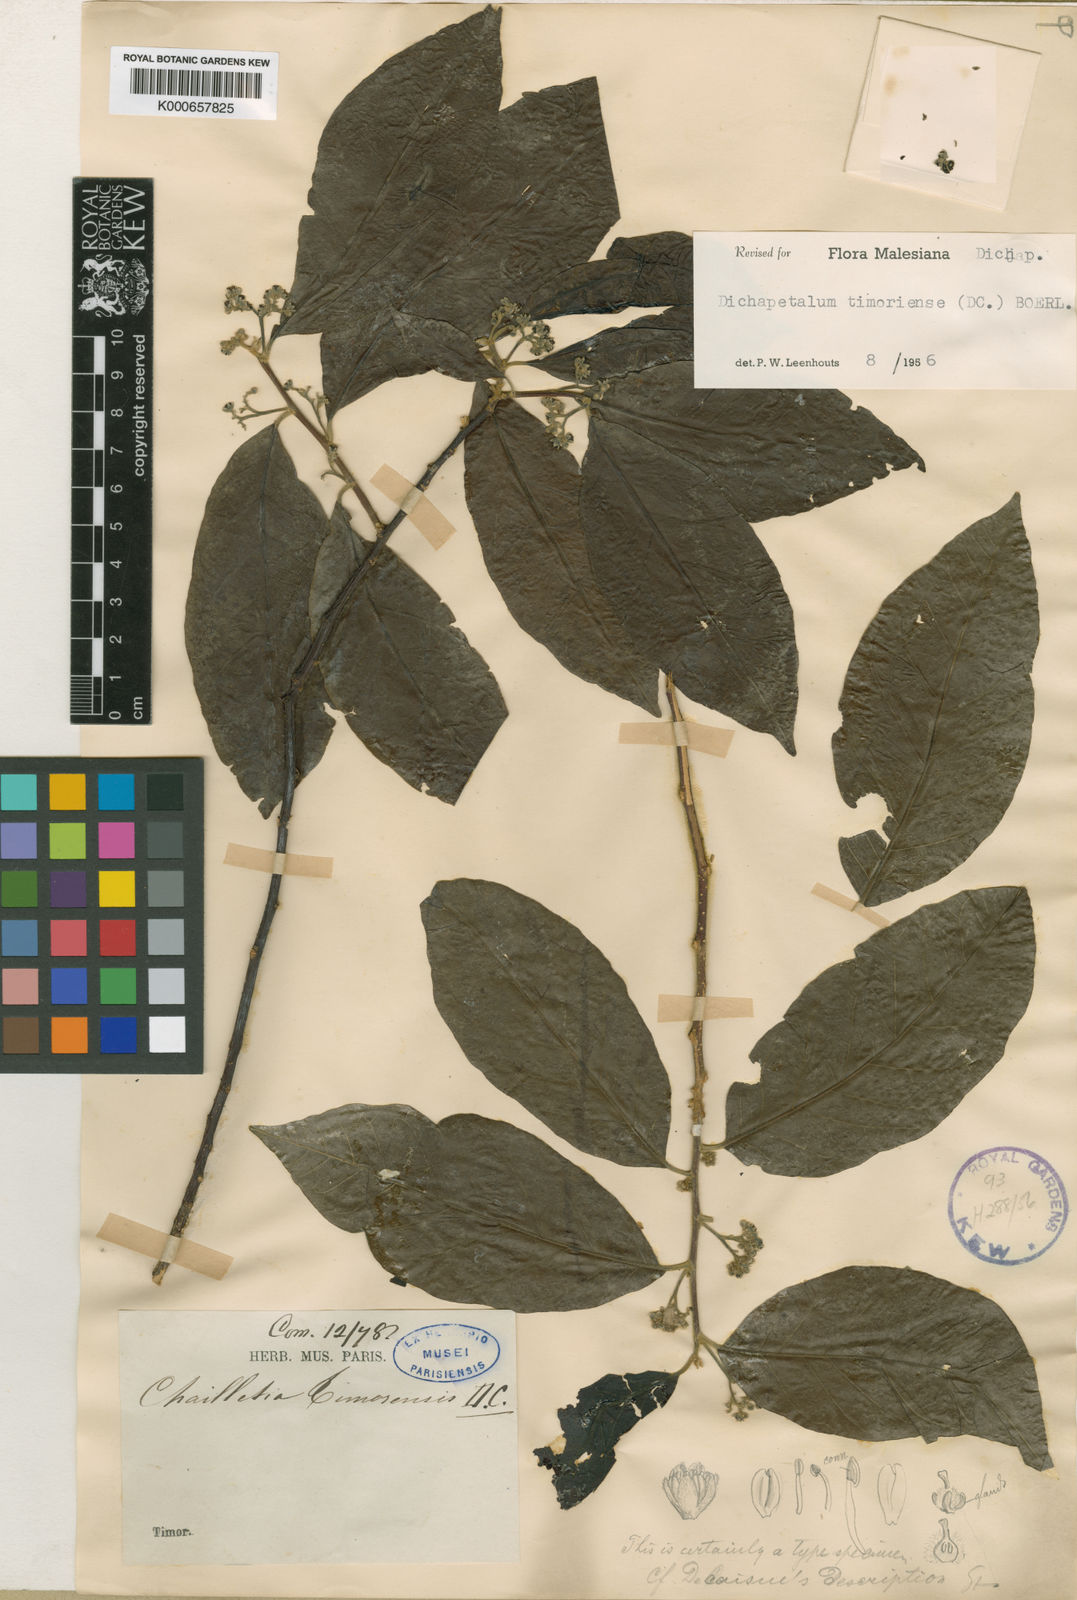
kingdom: Plantae
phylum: Tracheophyta
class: Magnoliopsida
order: Malpighiales
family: Dichapetalaceae
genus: Dichapetalum
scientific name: Dichapetalum timoriense
